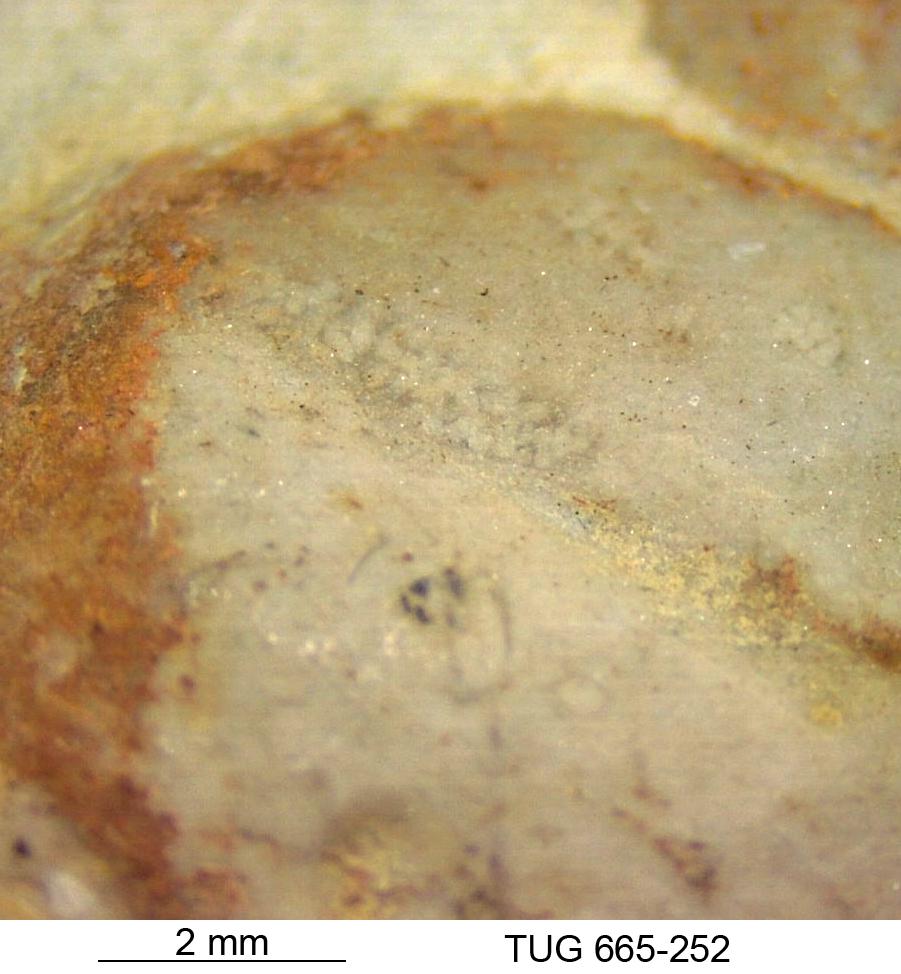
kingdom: Animalia
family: Coprulidae
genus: Coprulus
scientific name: Coprulus
